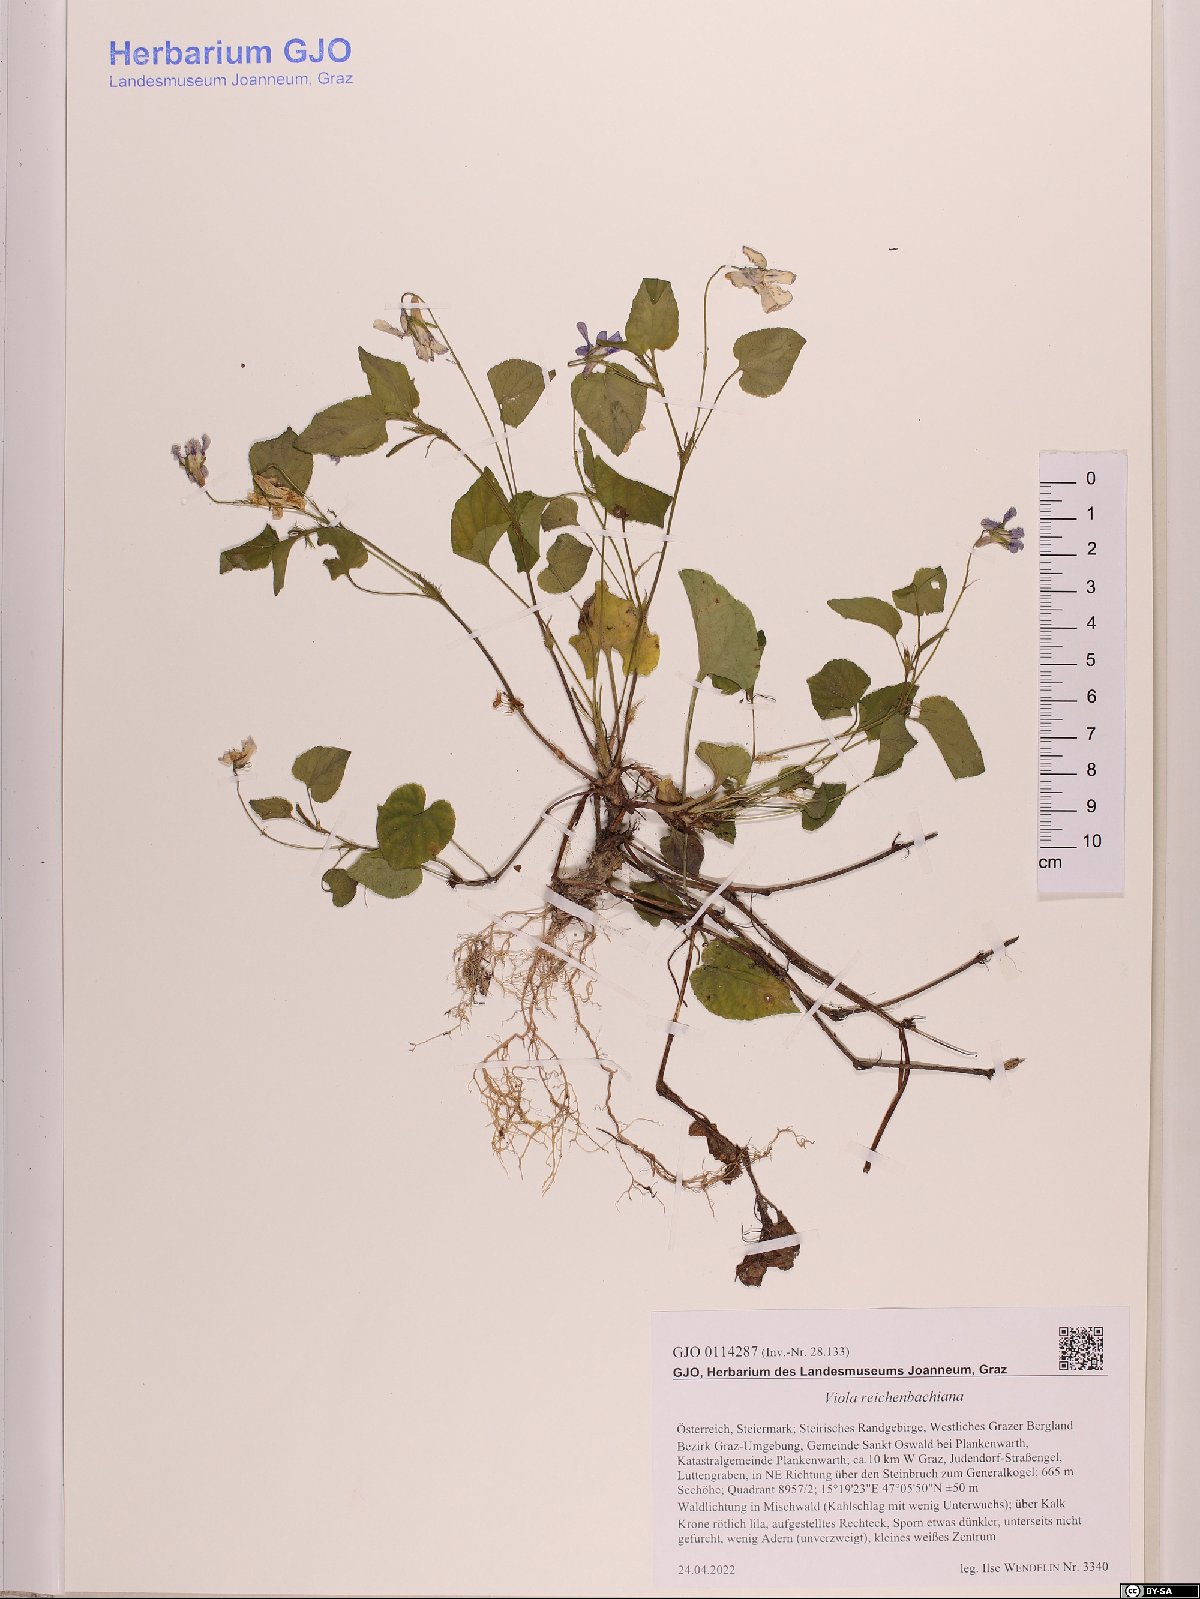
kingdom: Plantae
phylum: Tracheophyta
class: Magnoliopsida
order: Malpighiales
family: Violaceae
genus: Viola
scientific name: Viola reichenbachiana
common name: Early dog-violet
